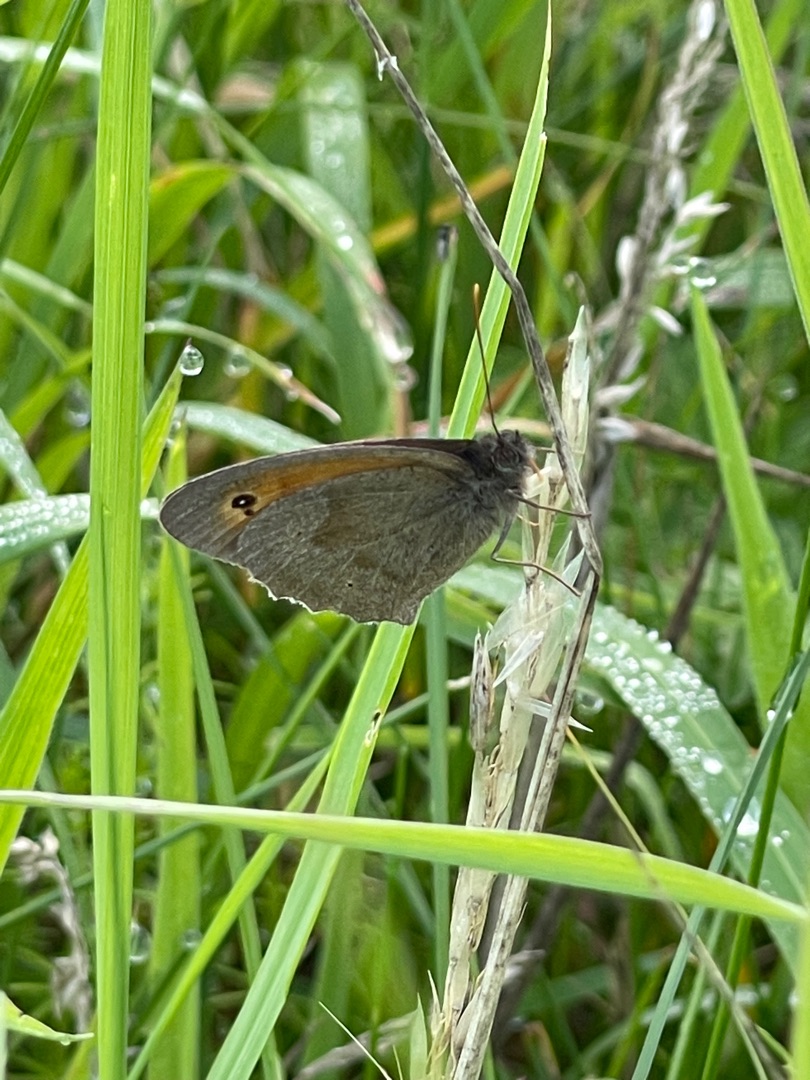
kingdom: Animalia
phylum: Arthropoda
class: Insecta
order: Lepidoptera
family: Nymphalidae
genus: Maniola
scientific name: Maniola jurtina
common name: Græsrandøje
